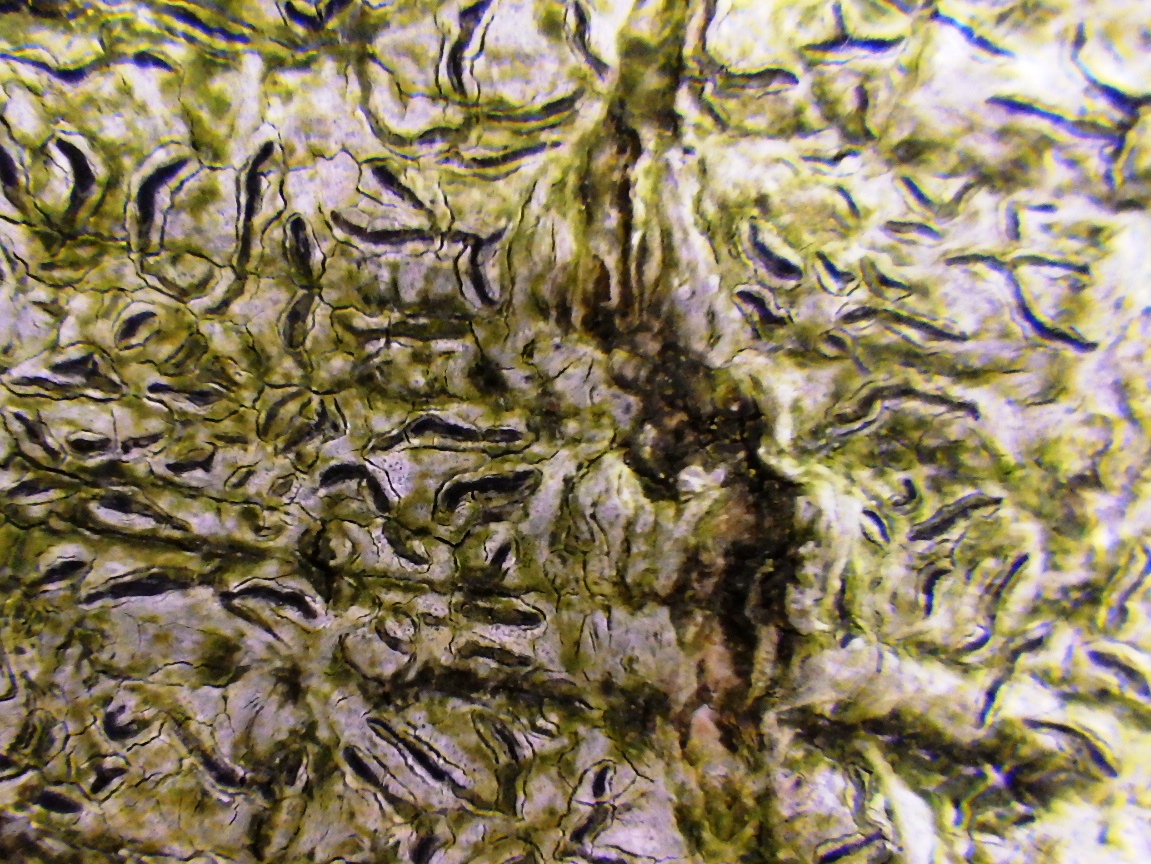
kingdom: Fungi
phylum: Ascomycota
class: Lecanoromycetes
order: Ostropales
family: Graphidaceae
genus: Graphis
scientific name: Graphis scripta
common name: almindelig skriftlav
